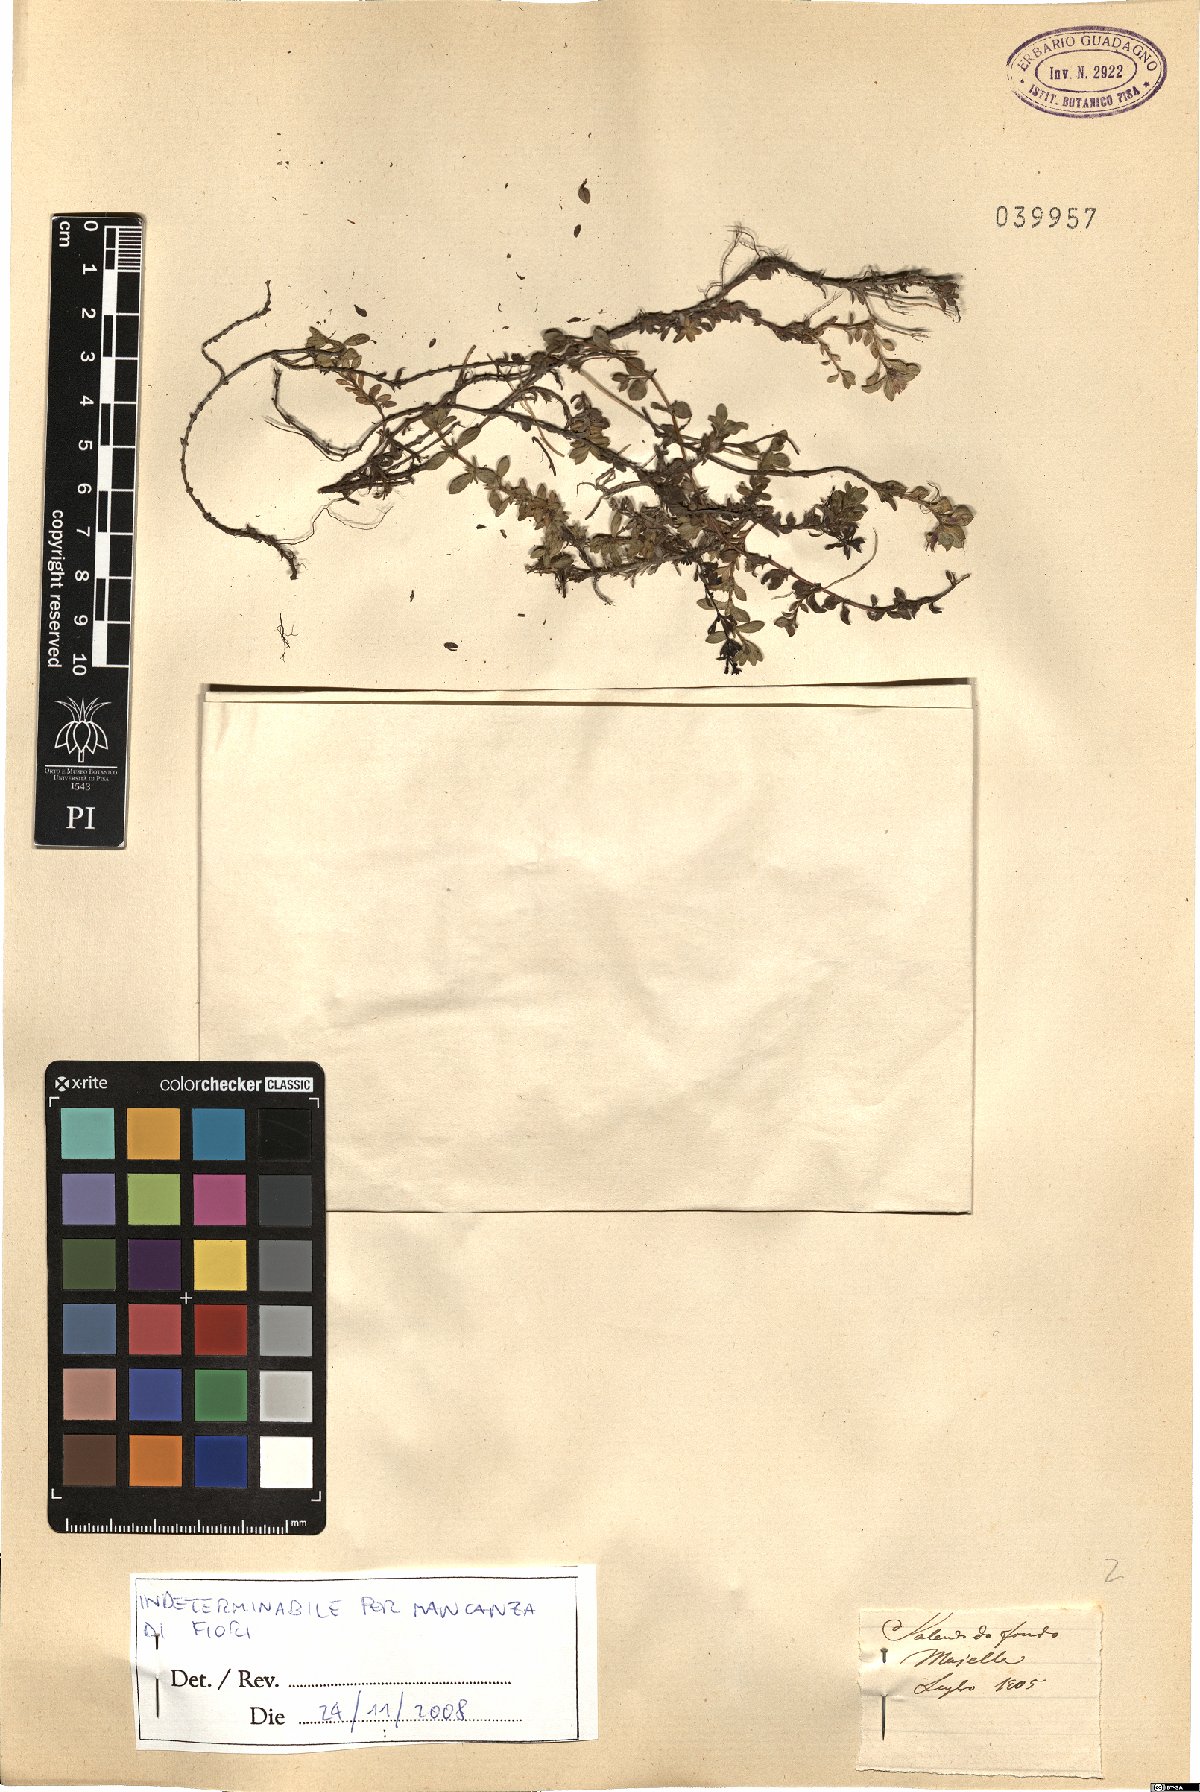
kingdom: Plantae
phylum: Tracheophyta
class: Magnoliopsida
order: Lamiales
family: Lamiaceae
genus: Thymus
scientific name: Thymus
